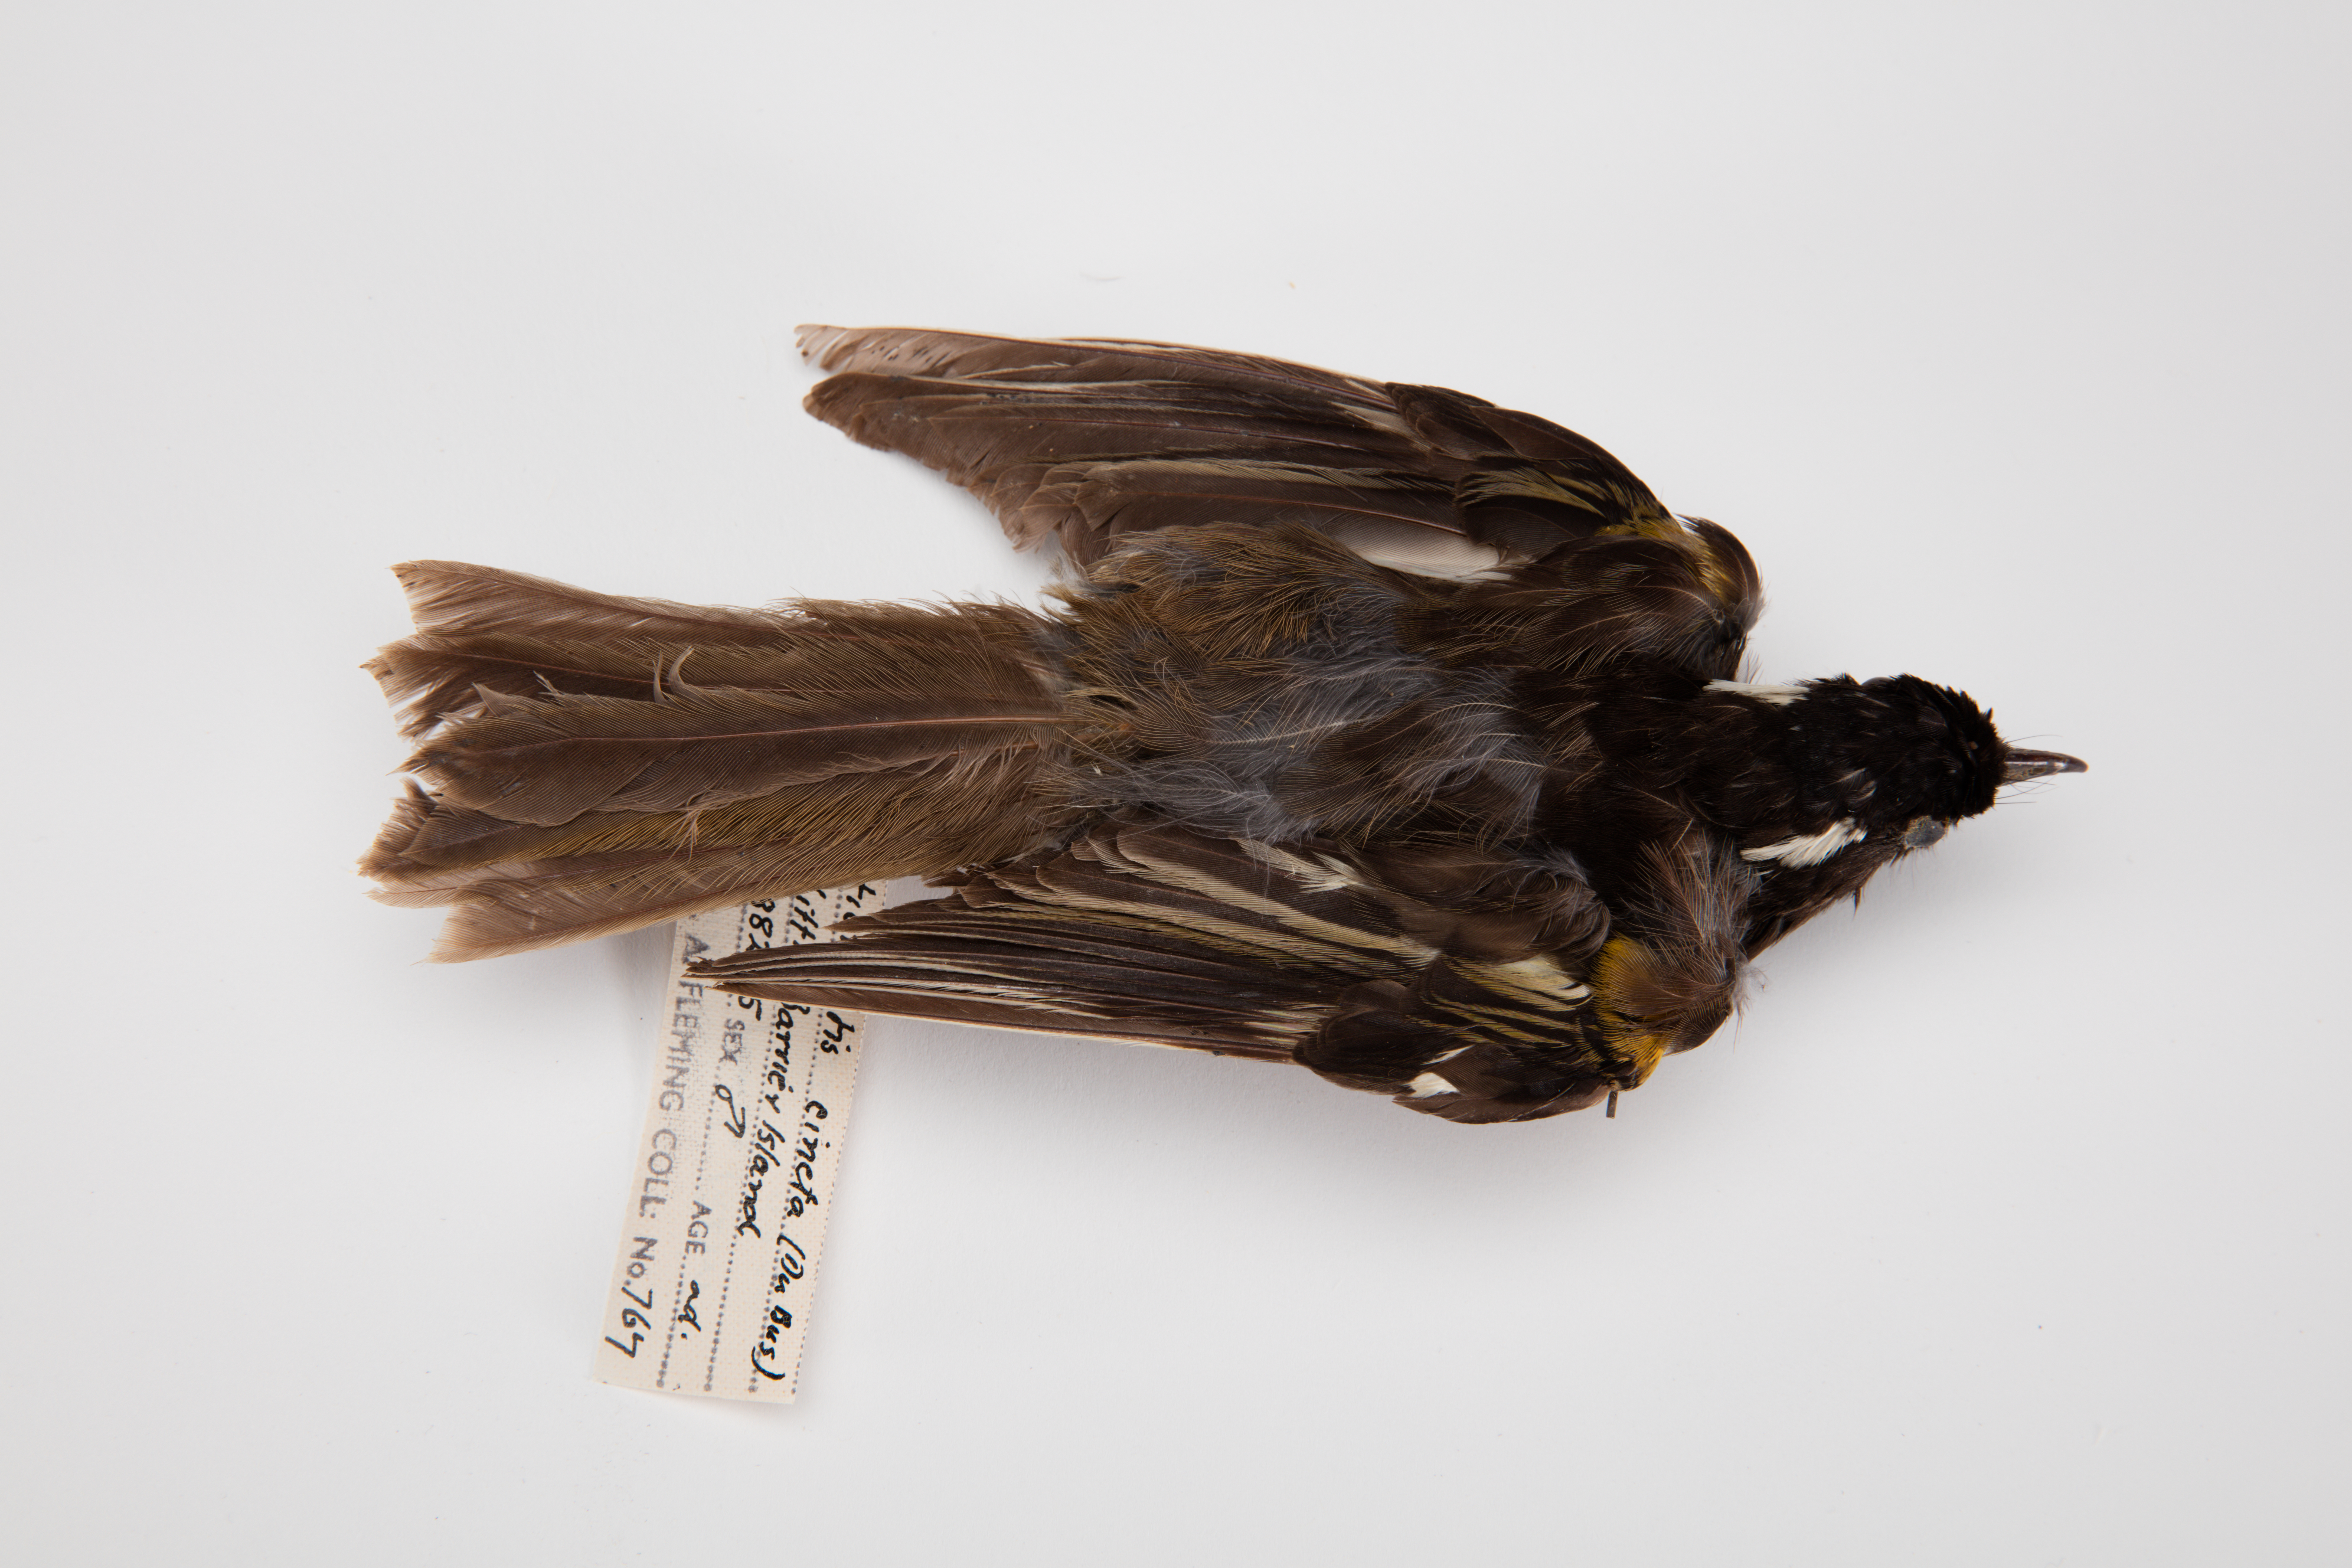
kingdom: Animalia
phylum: Chordata
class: Aves
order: Passeriformes
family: Notiomystidae
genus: Notiomystis
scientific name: Notiomystis cincta
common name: Stitchbird
